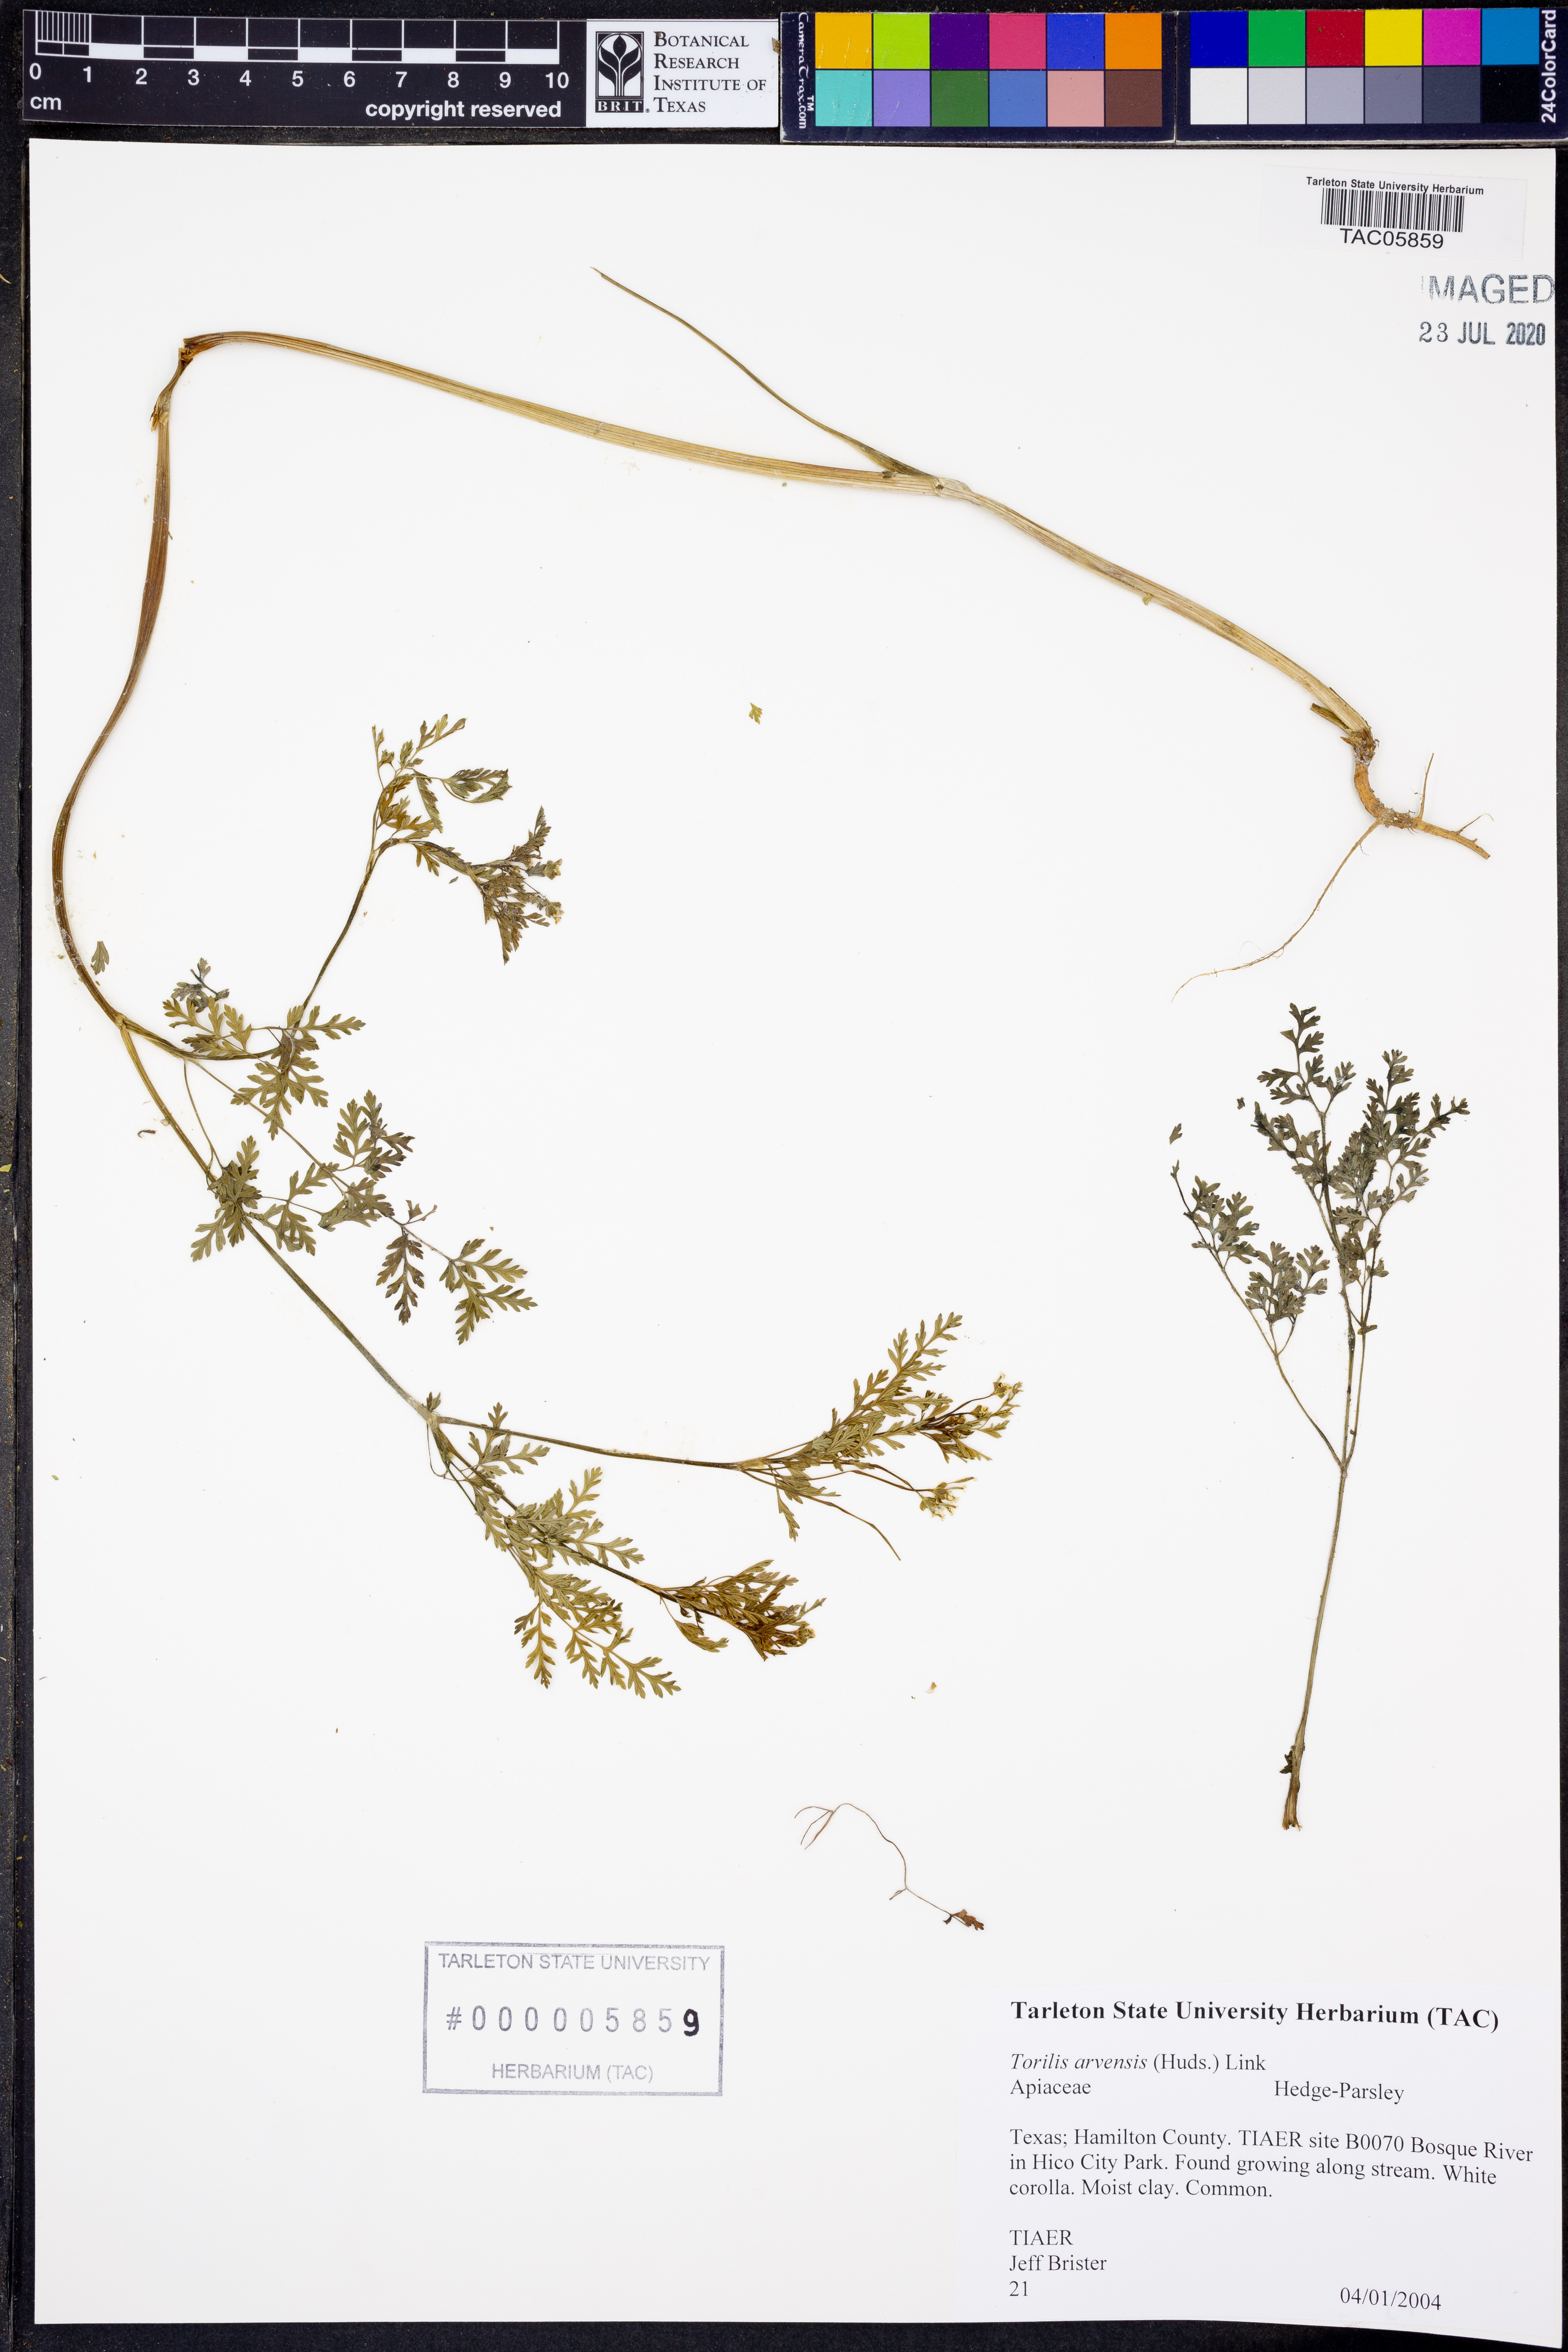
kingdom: Plantae
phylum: Tracheophyta
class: Magnoliopsida
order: Apiales
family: Apiaceae
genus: Torilis
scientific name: Torilis arvensis
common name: Spreading hedge-parsley
